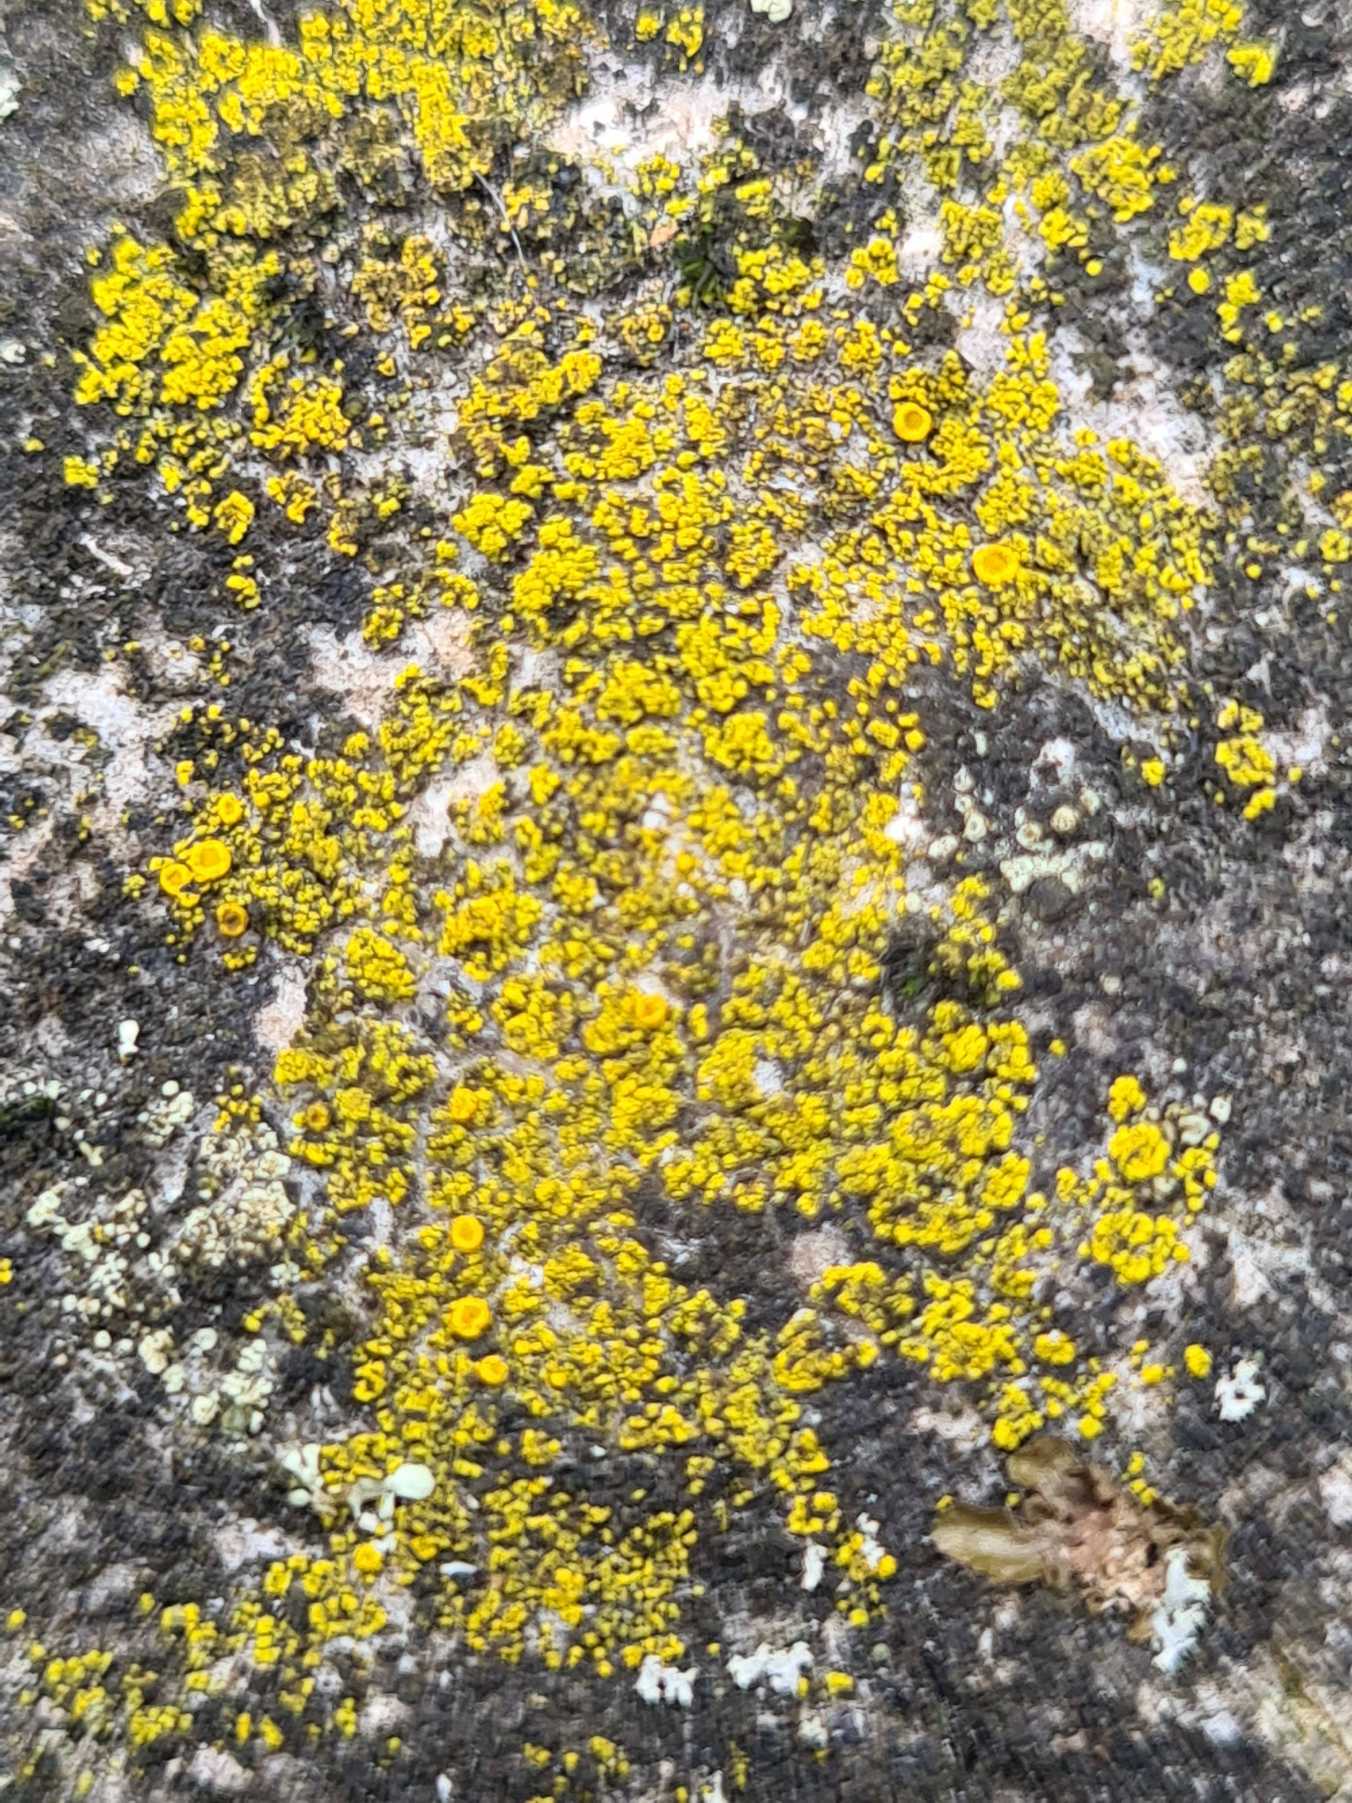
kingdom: Fungi
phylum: Ascomycota
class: Candelariomycetes
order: Candelariales
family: Candelariaceae
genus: Candelariella
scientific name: Candelariella vitellina
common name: Almindelig æggeblommelav
